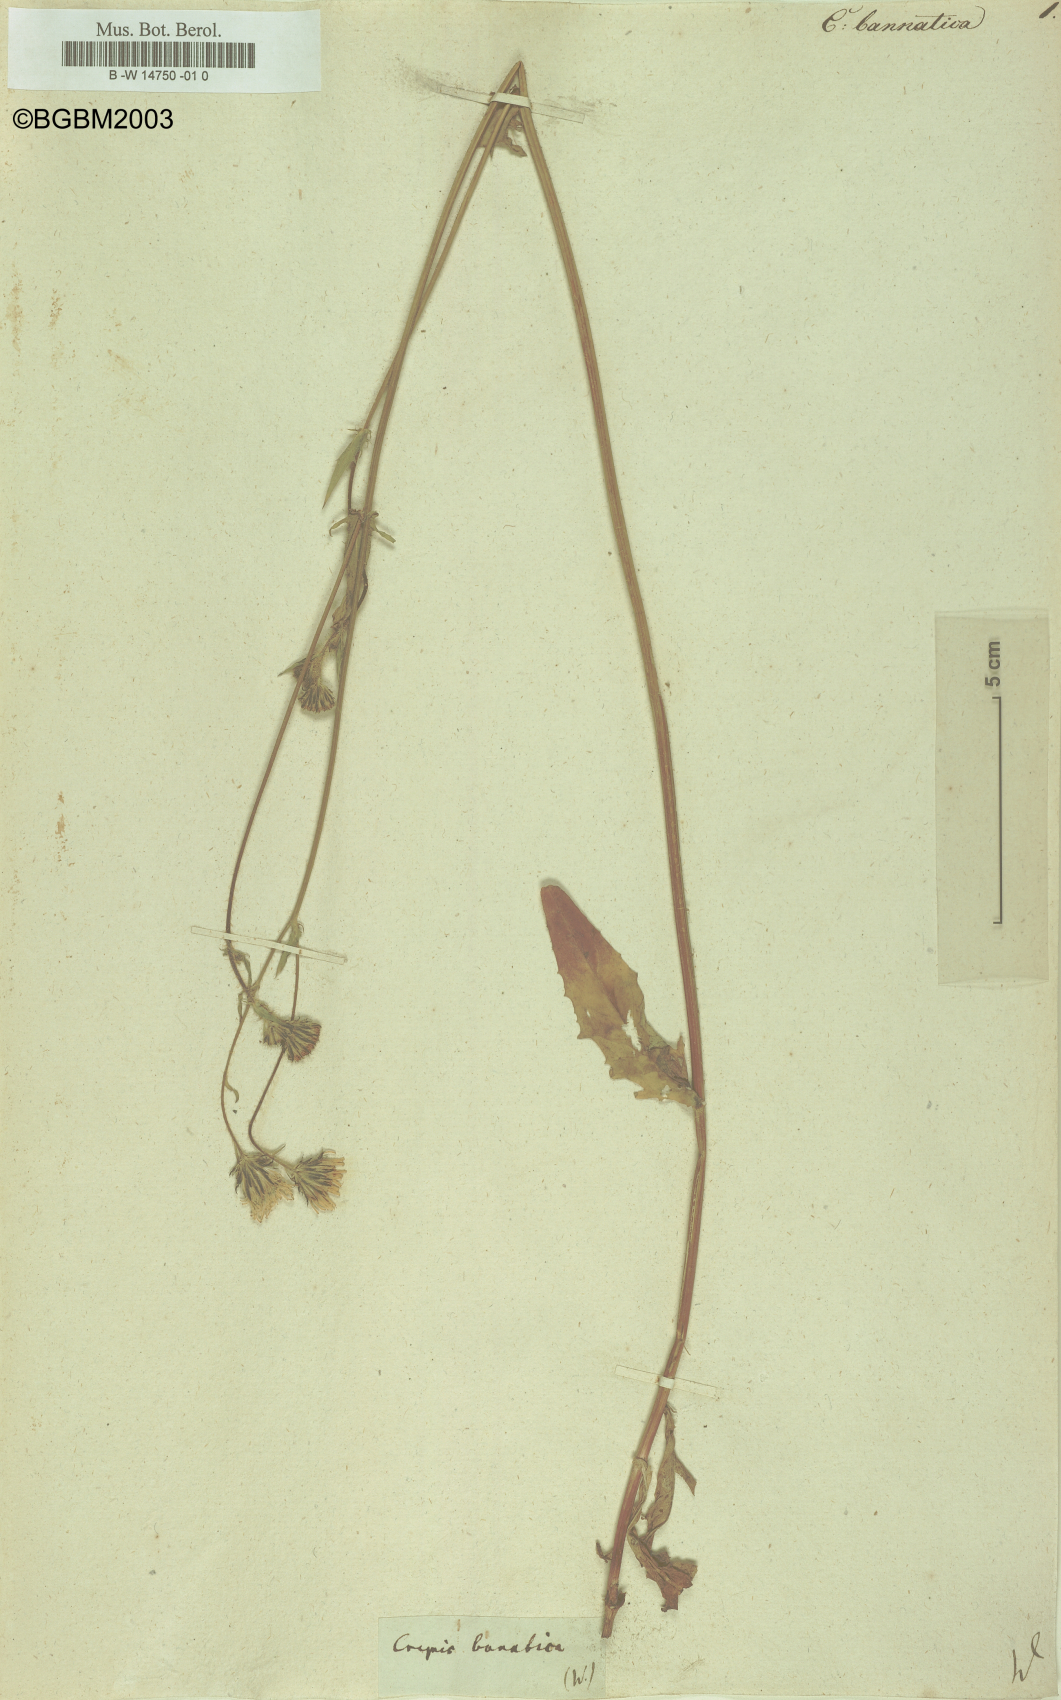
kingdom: Plantae
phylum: Tracheophyta
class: Magnoliopsida
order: Asterales
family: Asteraceae
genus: Crepis
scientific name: Crepis setosa
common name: Bristly hawk's-beard
